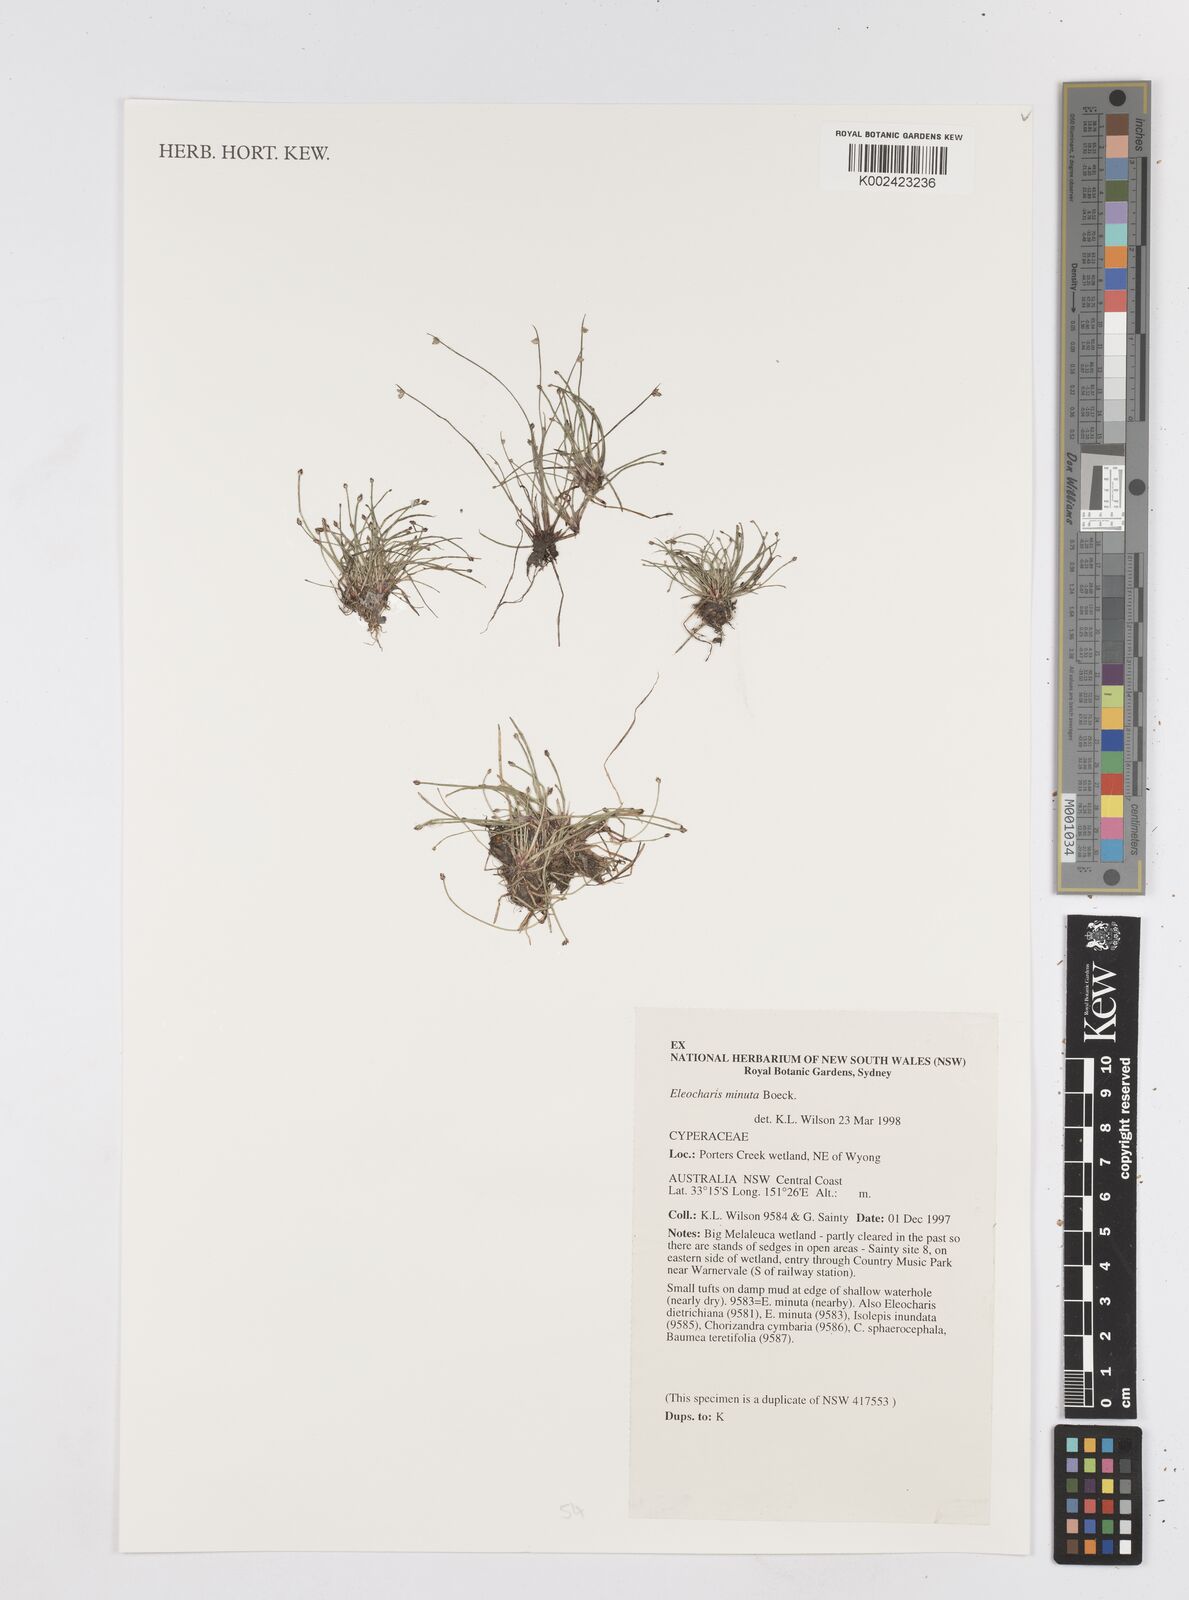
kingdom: Plantae
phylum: Tracheophyta
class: Liliopsida
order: Poales
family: Cyperaceae
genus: Eleocharis
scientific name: Eleocharis minuta
